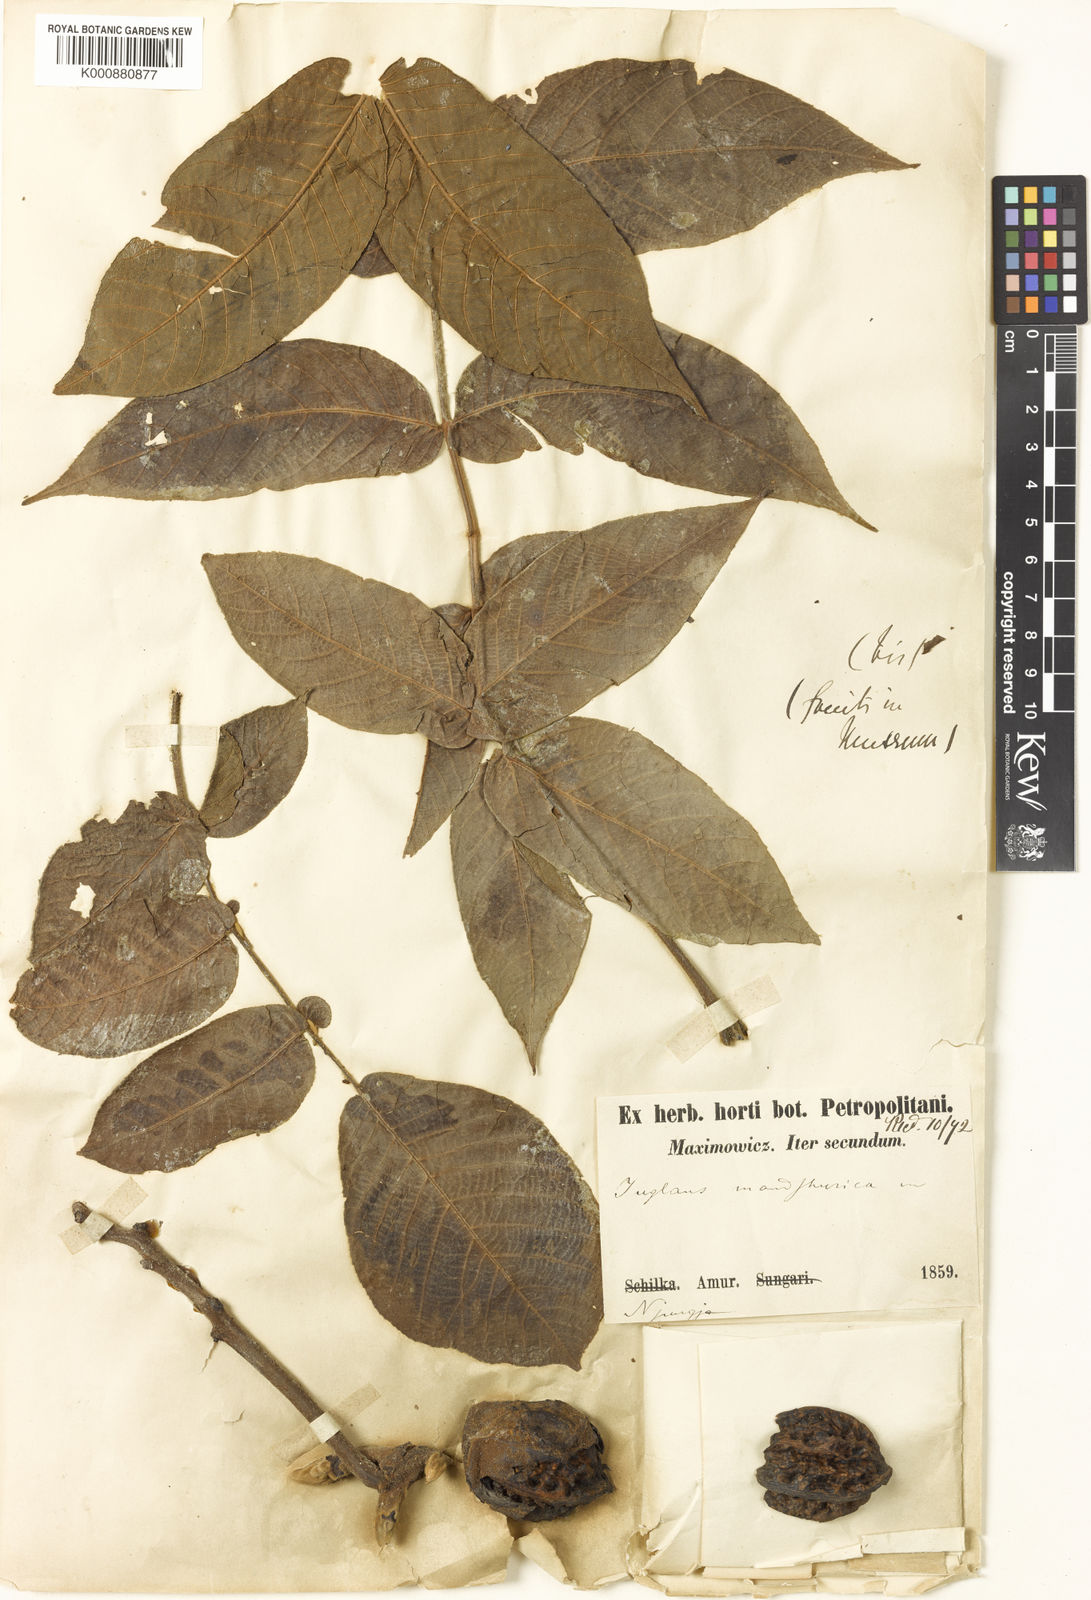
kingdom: Plantae
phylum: Tracheophyta
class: Magnoliopsida
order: Fagales
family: Juglandaceae
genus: Juglans
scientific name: Juglans mandshurica
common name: Manchurian walnut
